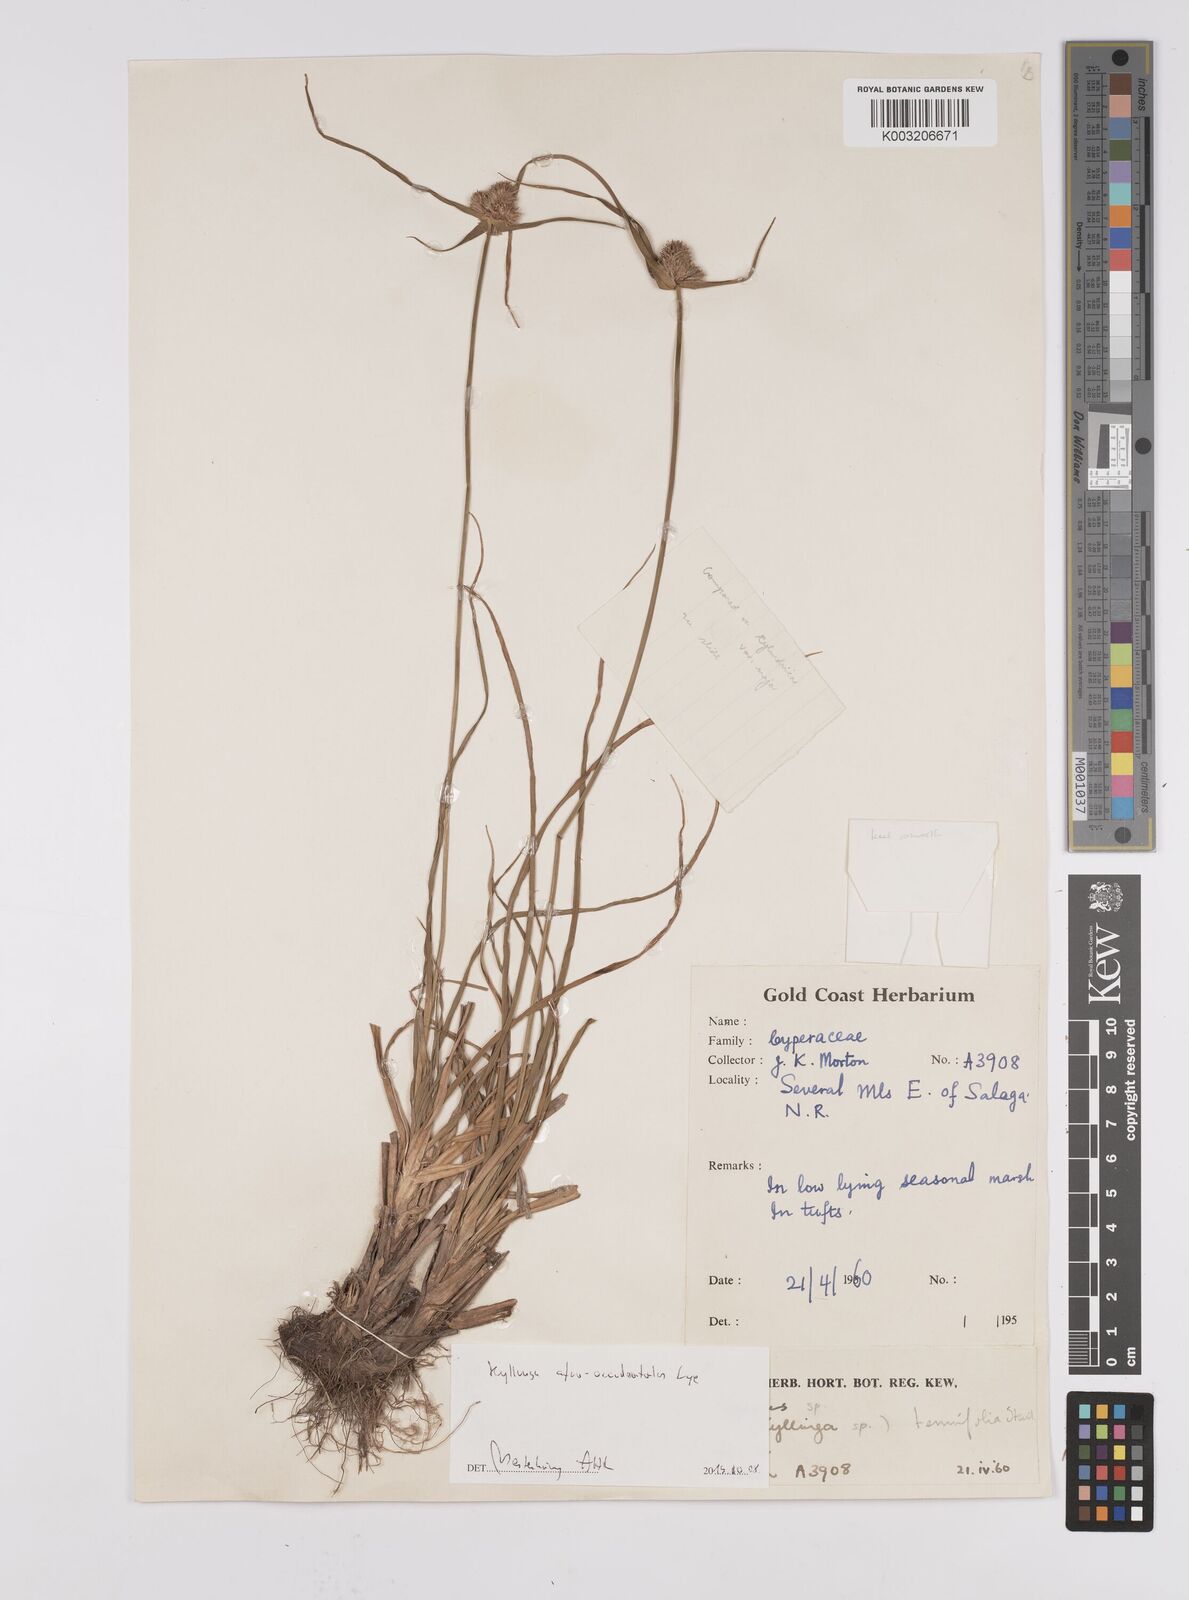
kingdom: Plantae
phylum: Tracheophyta
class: Liliopsida
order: Poales
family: Cyperaceae
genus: Cyperus
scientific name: Cyperus afro-occidentalis
